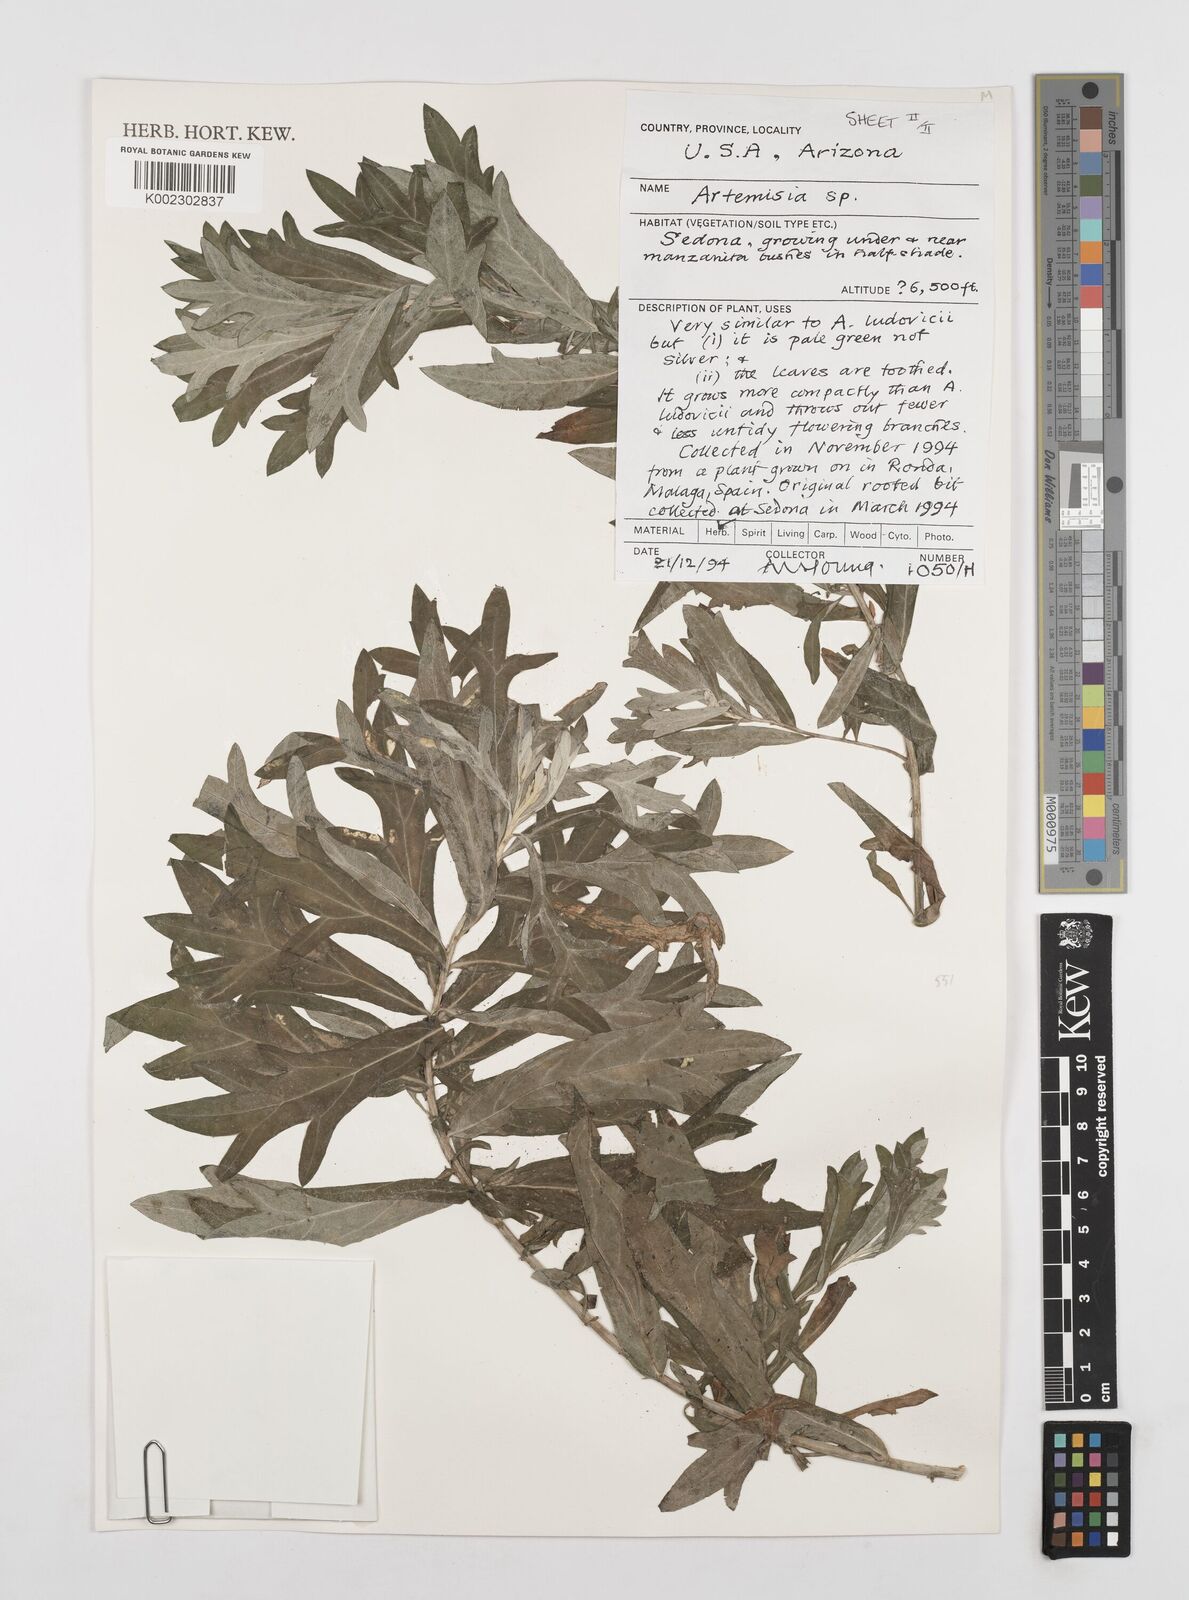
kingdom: Plantae
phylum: Tracheophyta
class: Magnoliopsida
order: Asterales
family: Asteraceae
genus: Artemisia
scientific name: Artemisia ludoviciana
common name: Western mugwort
